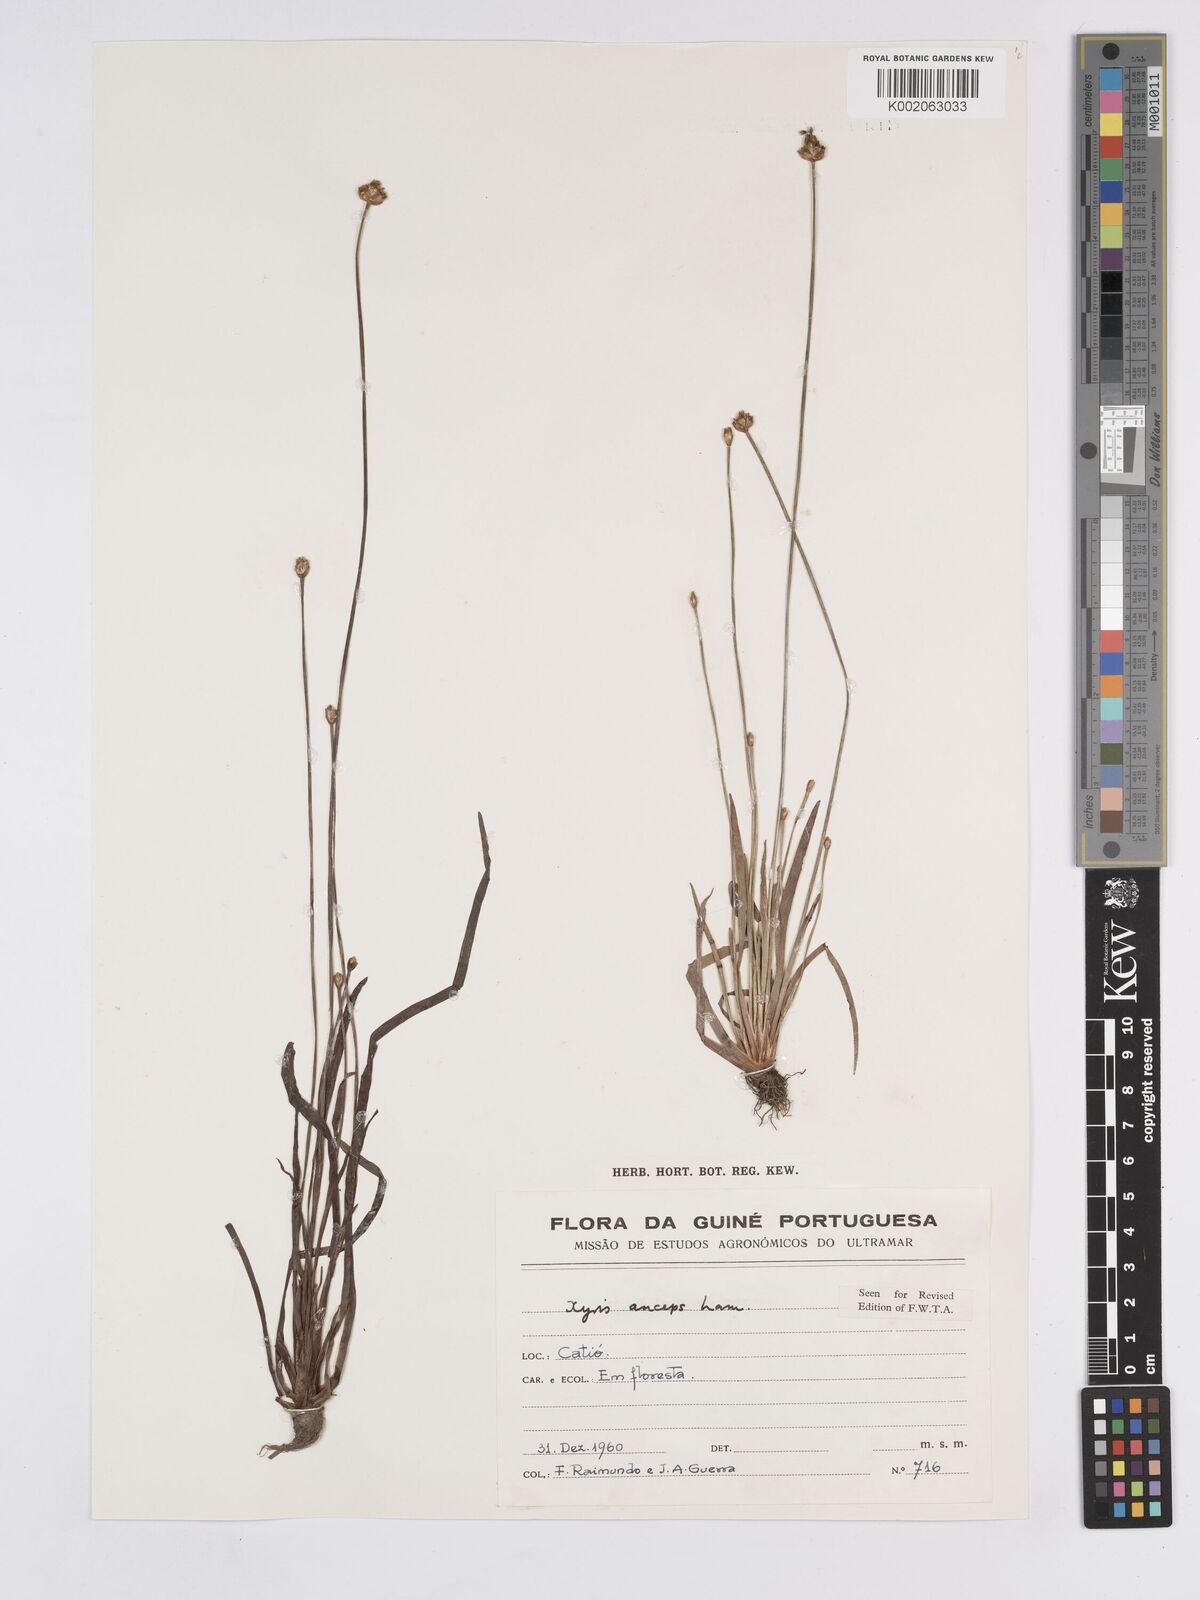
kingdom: Plantae
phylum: Tracheophyta
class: Liliopsida
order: Poales
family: Xyridaceae
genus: Xyris
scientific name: Xyris anceps
